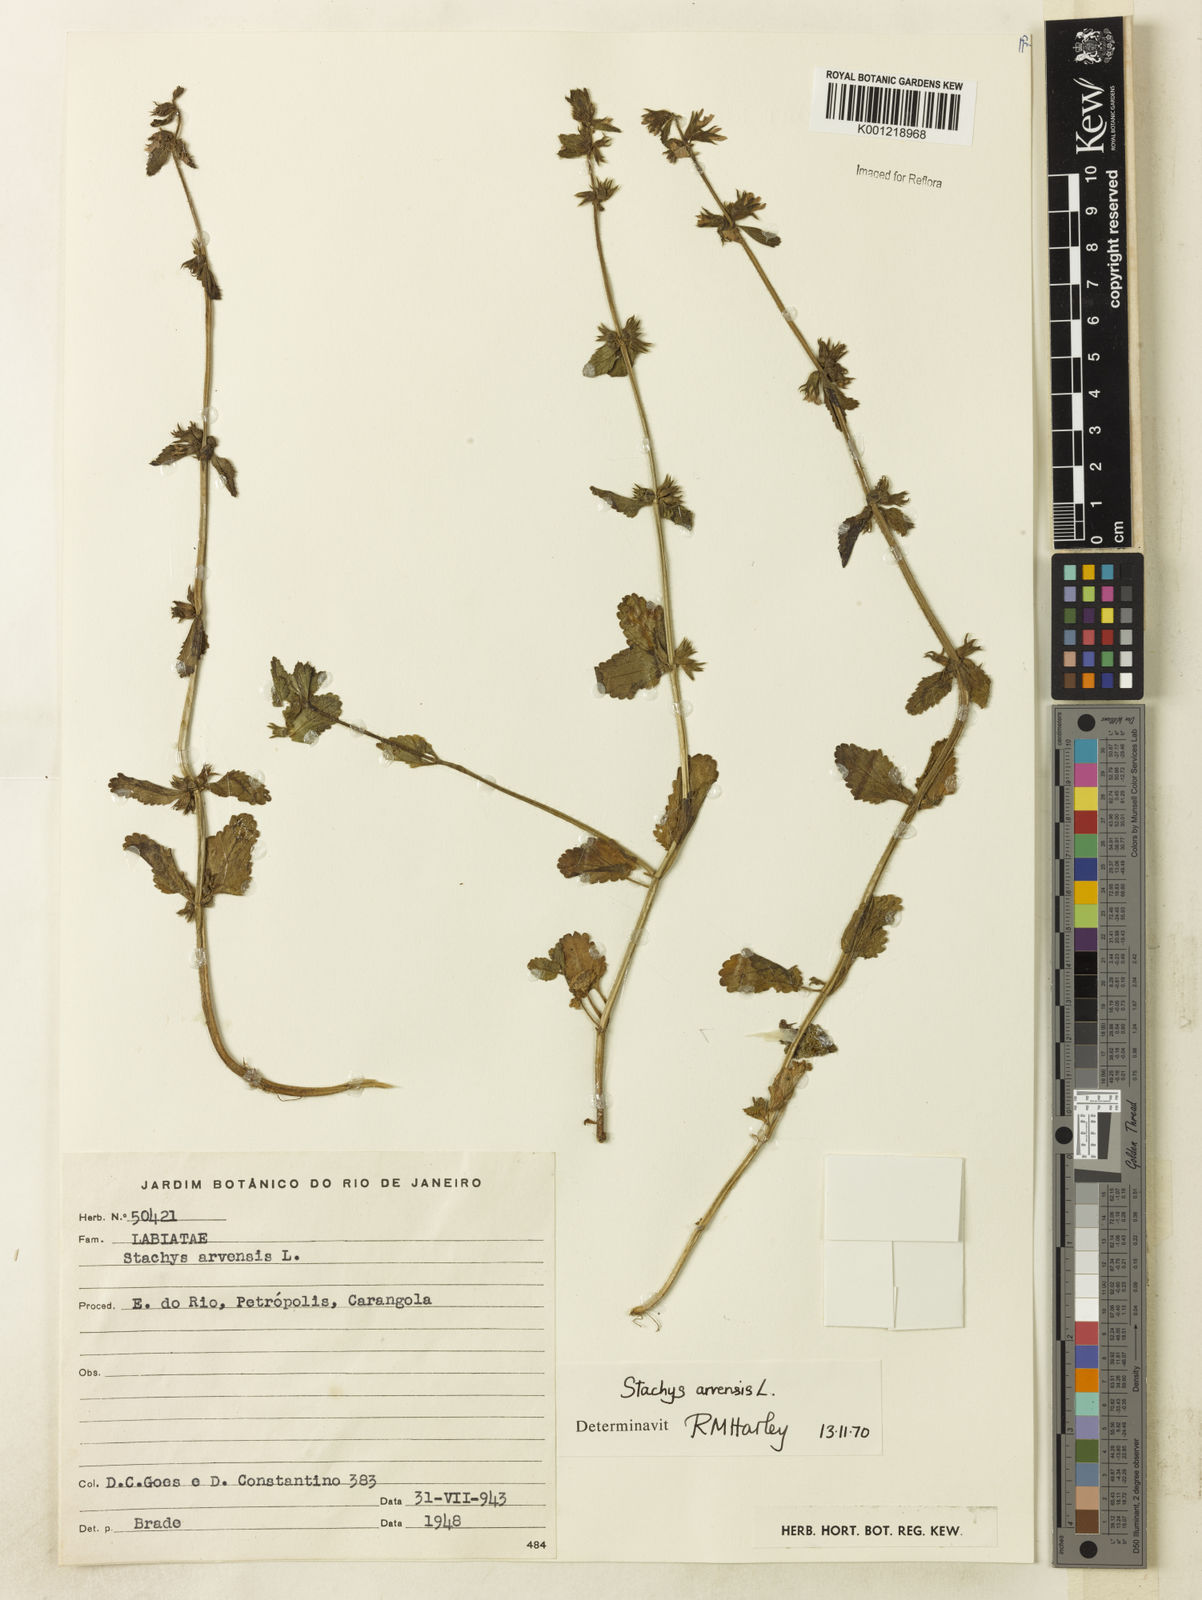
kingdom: Plantae
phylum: Tracheophyta
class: Magnoliopsida
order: Lamiales
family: Lamiaceae
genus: Stachys
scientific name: Stachys arvensis
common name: Field woundwort
